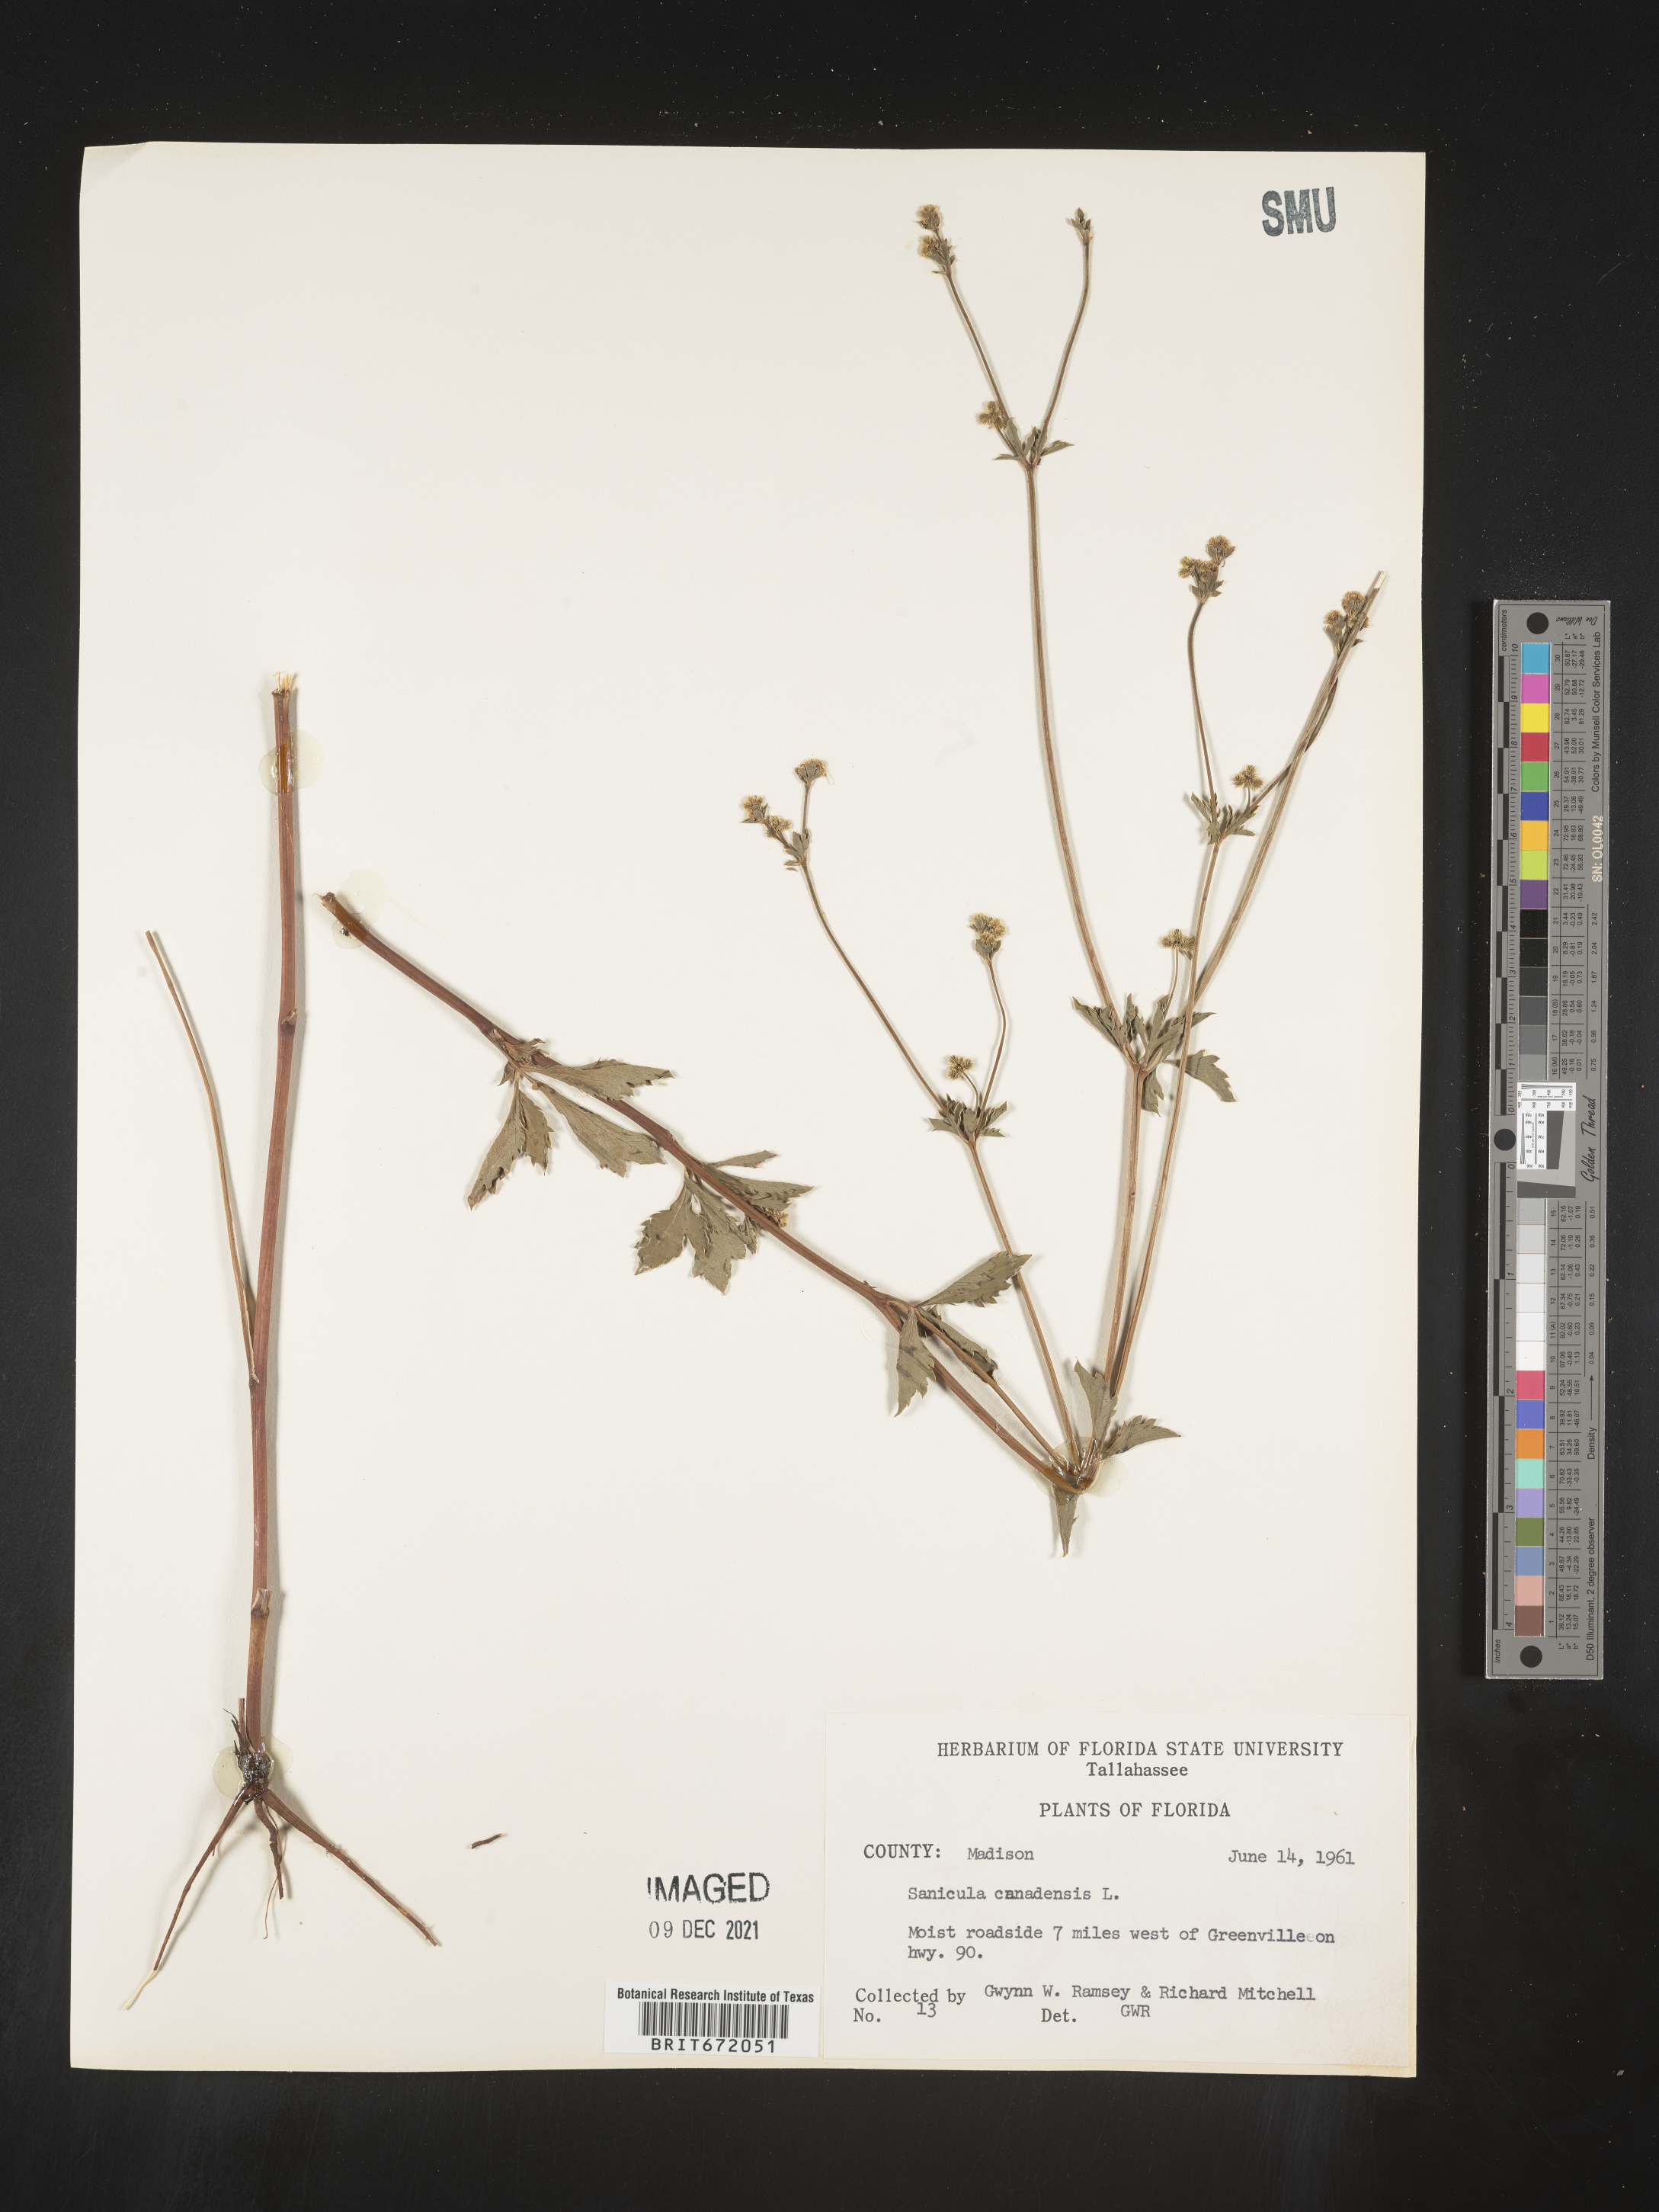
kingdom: Plantae
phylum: Tracheophyta
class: Magnoliopsida
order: Apiales
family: Apiaceae
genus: Sanicula
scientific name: Sanicula canadensis
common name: Canada sanicle
